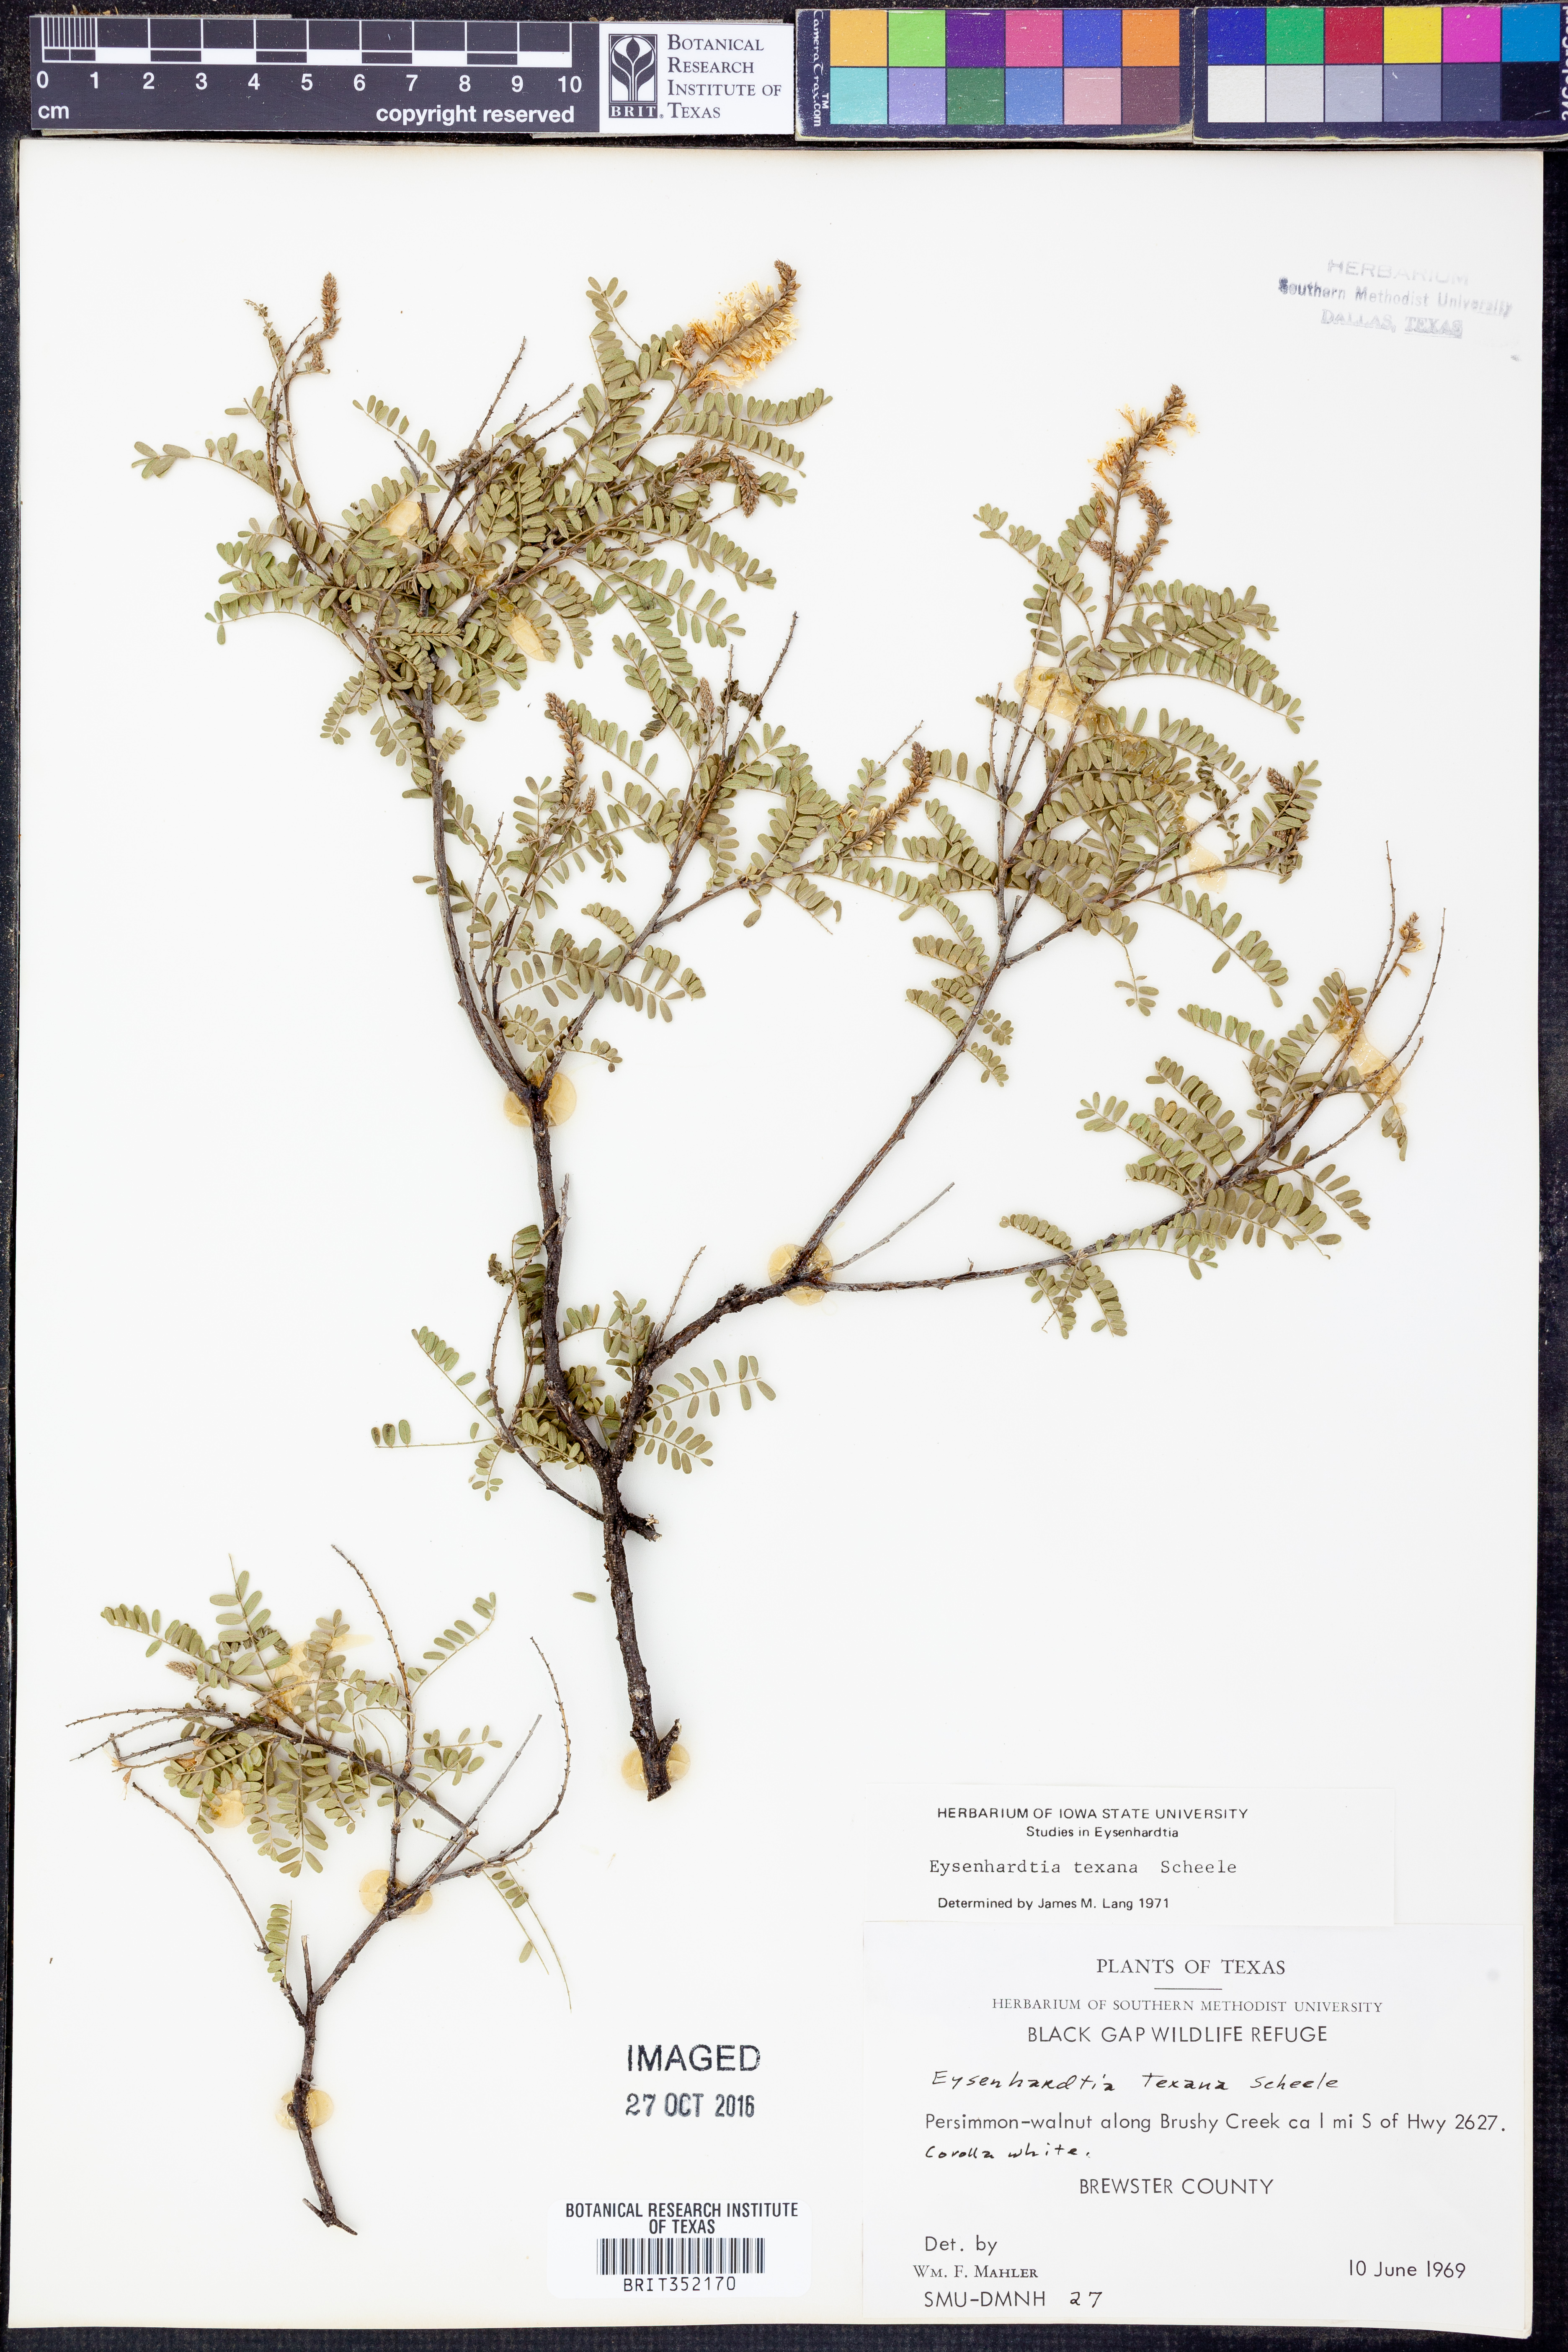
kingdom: Plantae
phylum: Tracheophyta
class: Magnoliopsida
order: Fabales
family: Fabaceae
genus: Eysenhardtia
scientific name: Eysenhardtia texana
